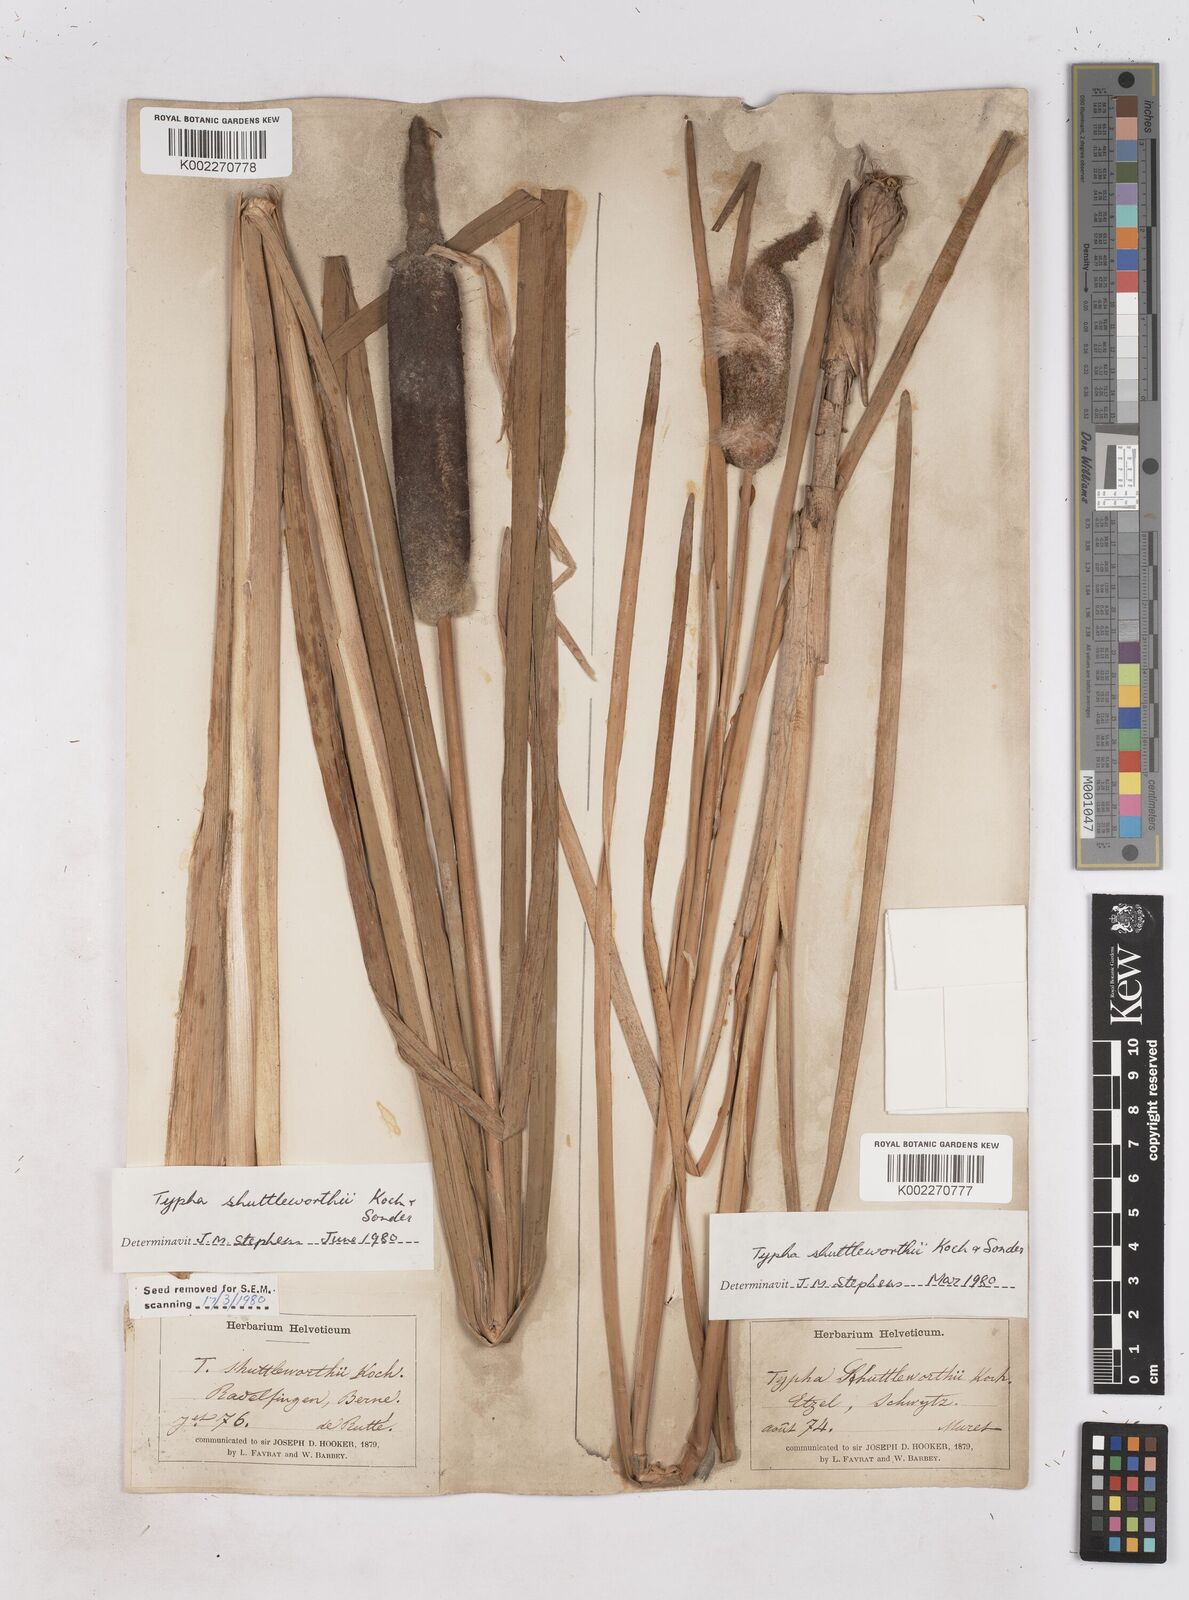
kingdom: Plantae
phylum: Tracheophyta
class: Liliopsida
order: Poales
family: Typhaceae
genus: Typha
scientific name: Typha shuttleworthii
